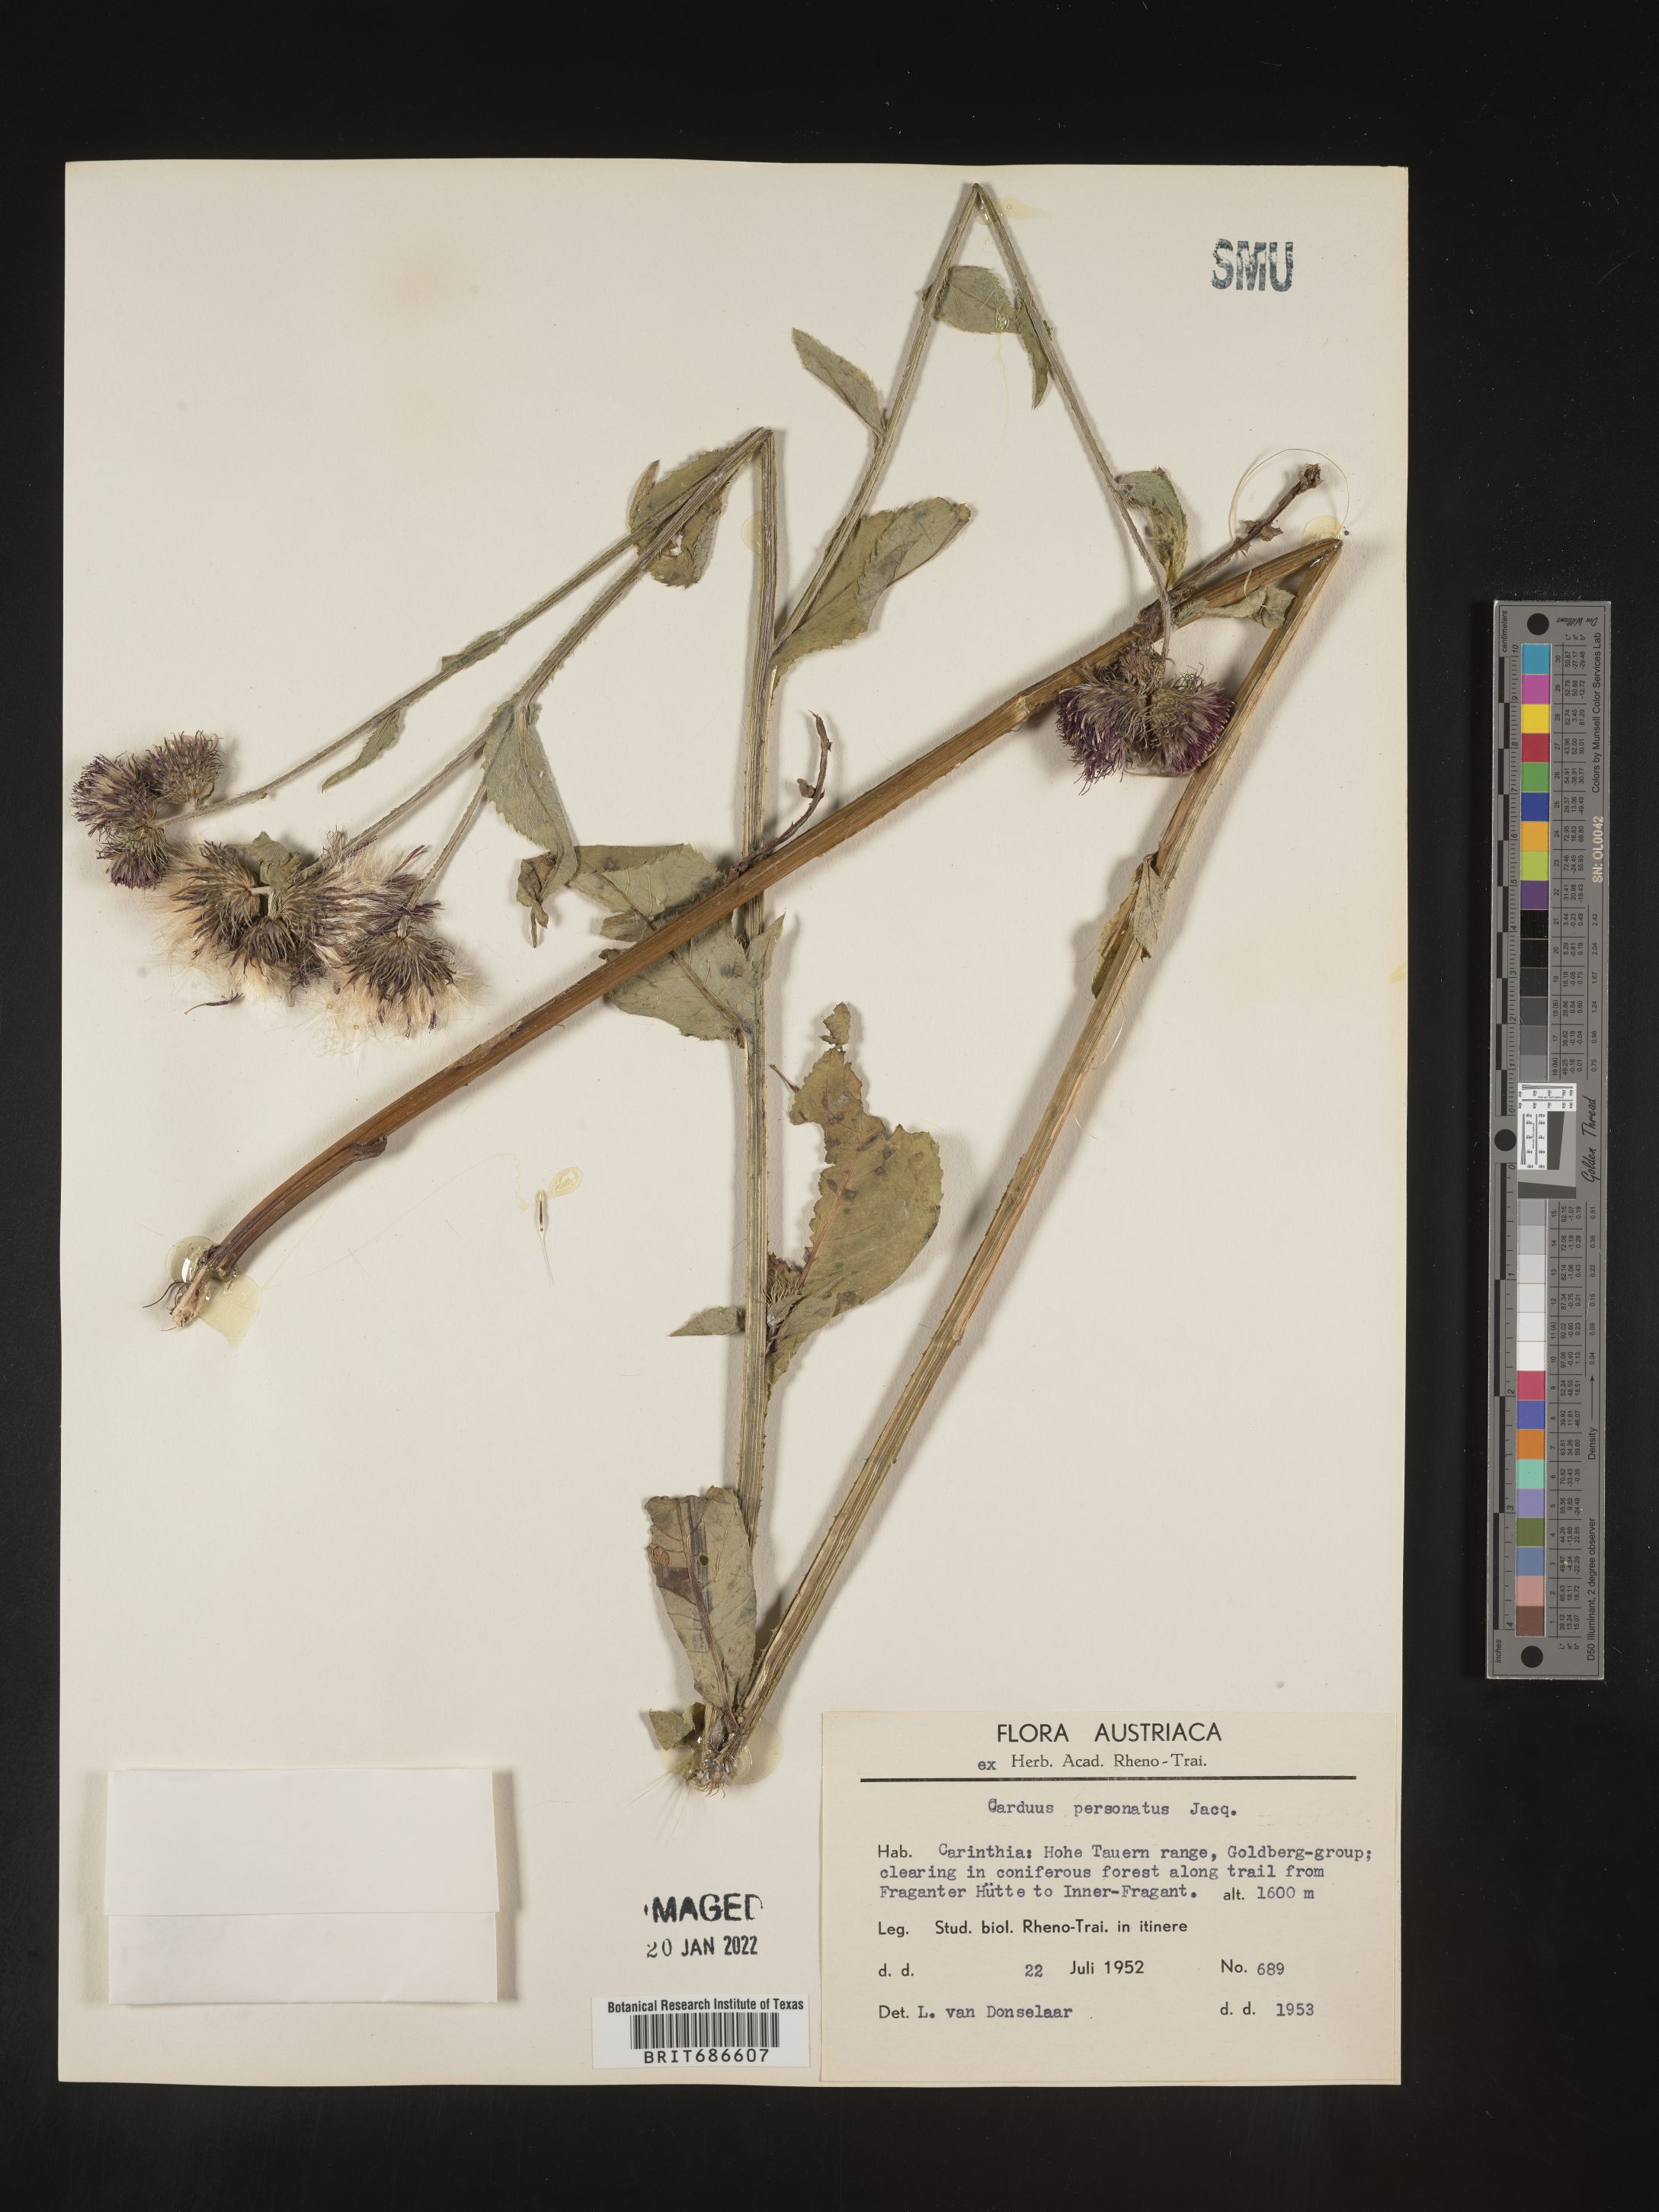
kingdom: Plantae
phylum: Tracheophyta
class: Magnoliopsida
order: Asterales
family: Asteraceae
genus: Carduus
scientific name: Carduus
